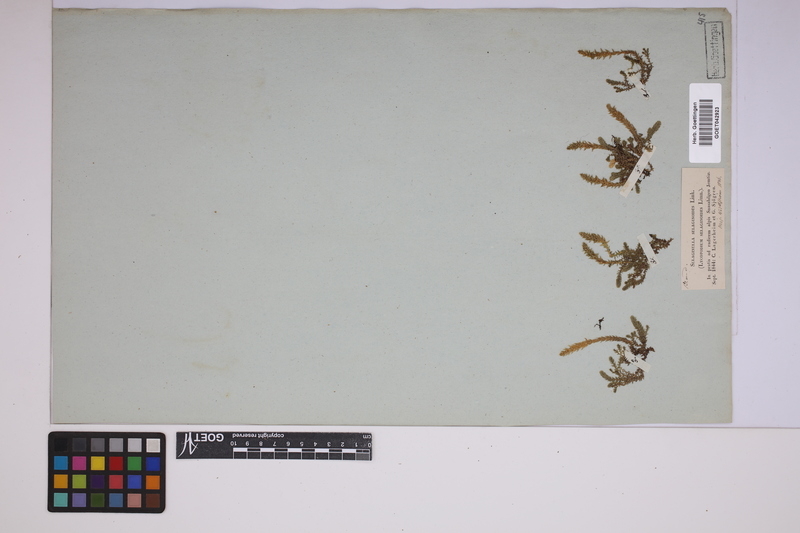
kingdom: Plantae
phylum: Tracheophyta
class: Lycopodiopsida
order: Selaginellales
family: Selaginellaceae
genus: Selaginella
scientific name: Selaginella selaginoides
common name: Prickly mountain-moss
